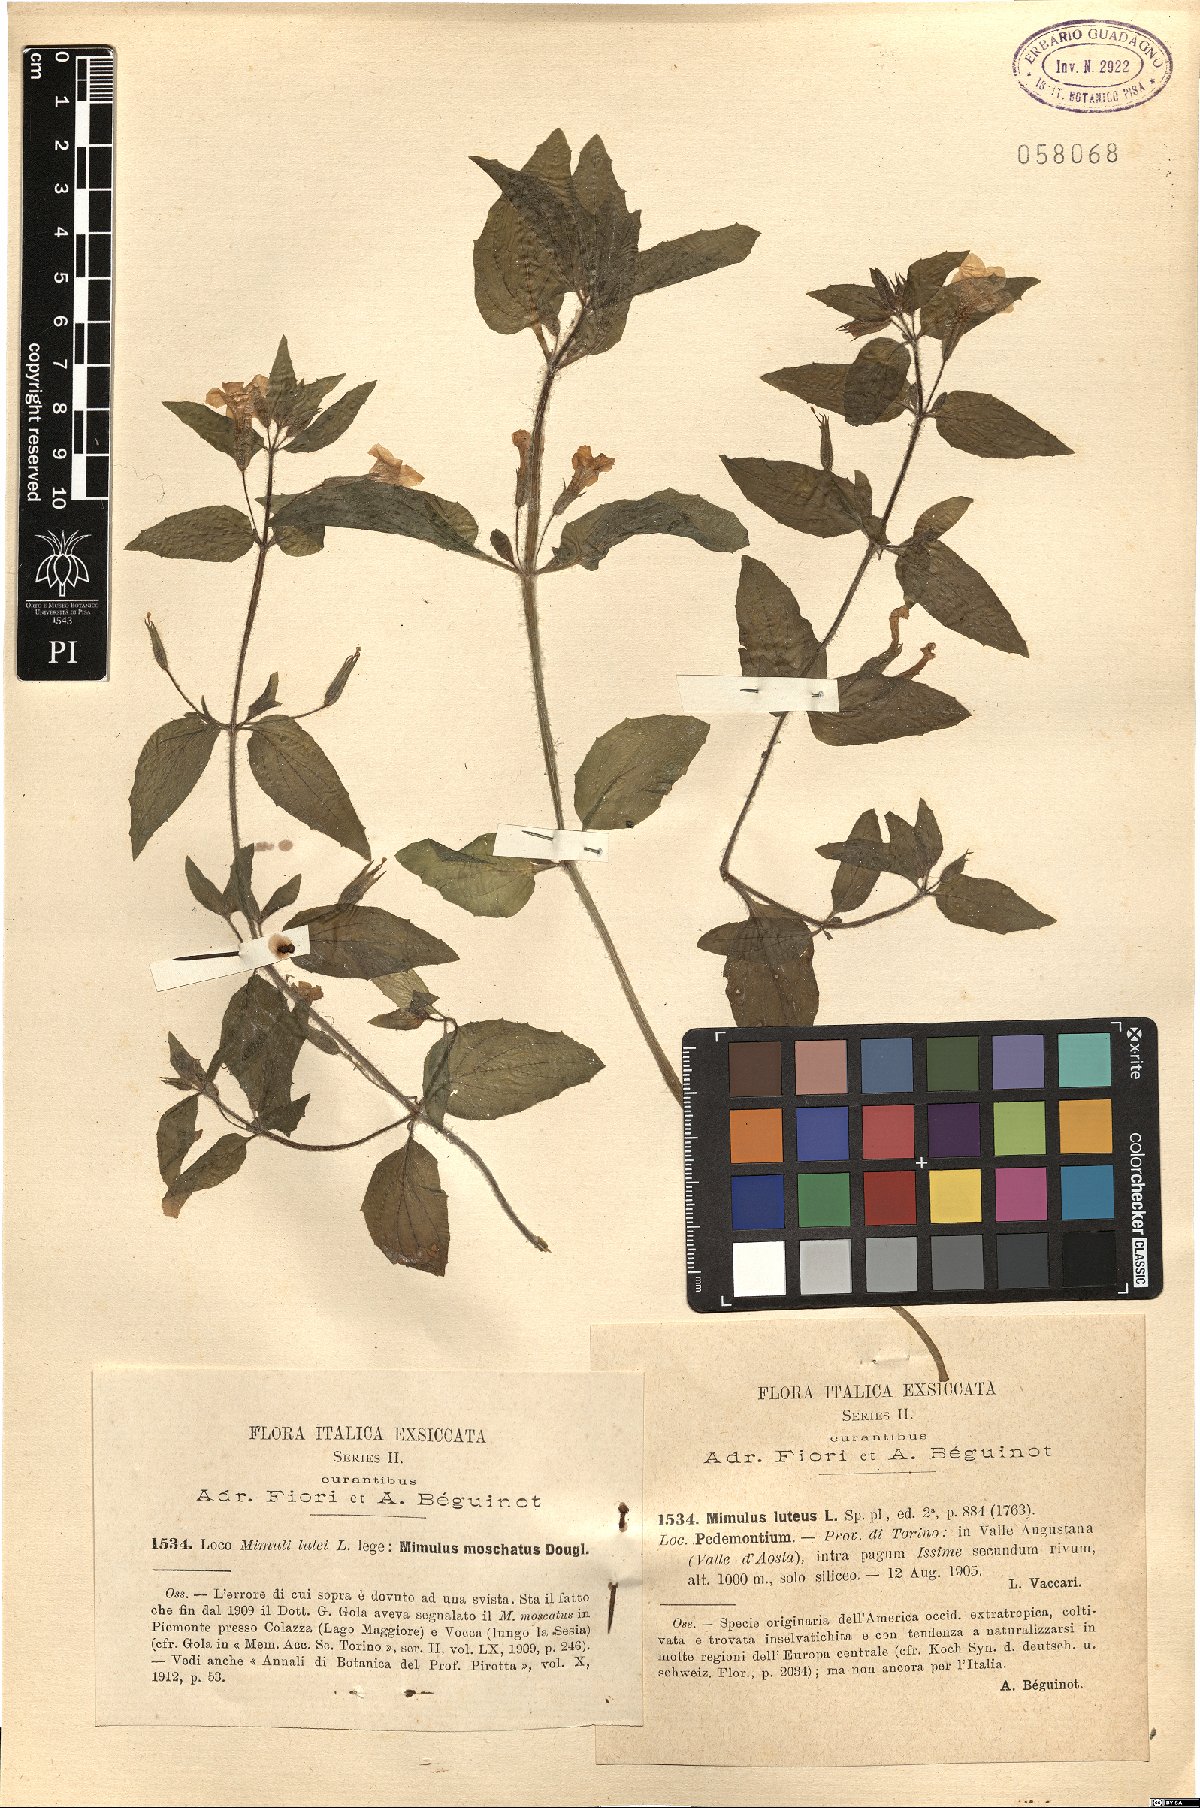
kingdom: Plantae
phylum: Tracheophyta
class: Magnoliopsida
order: Lamiales
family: Phrymaceae
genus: Erythranthe
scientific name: Erythranthe lutea
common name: Yellow monkey-flower
